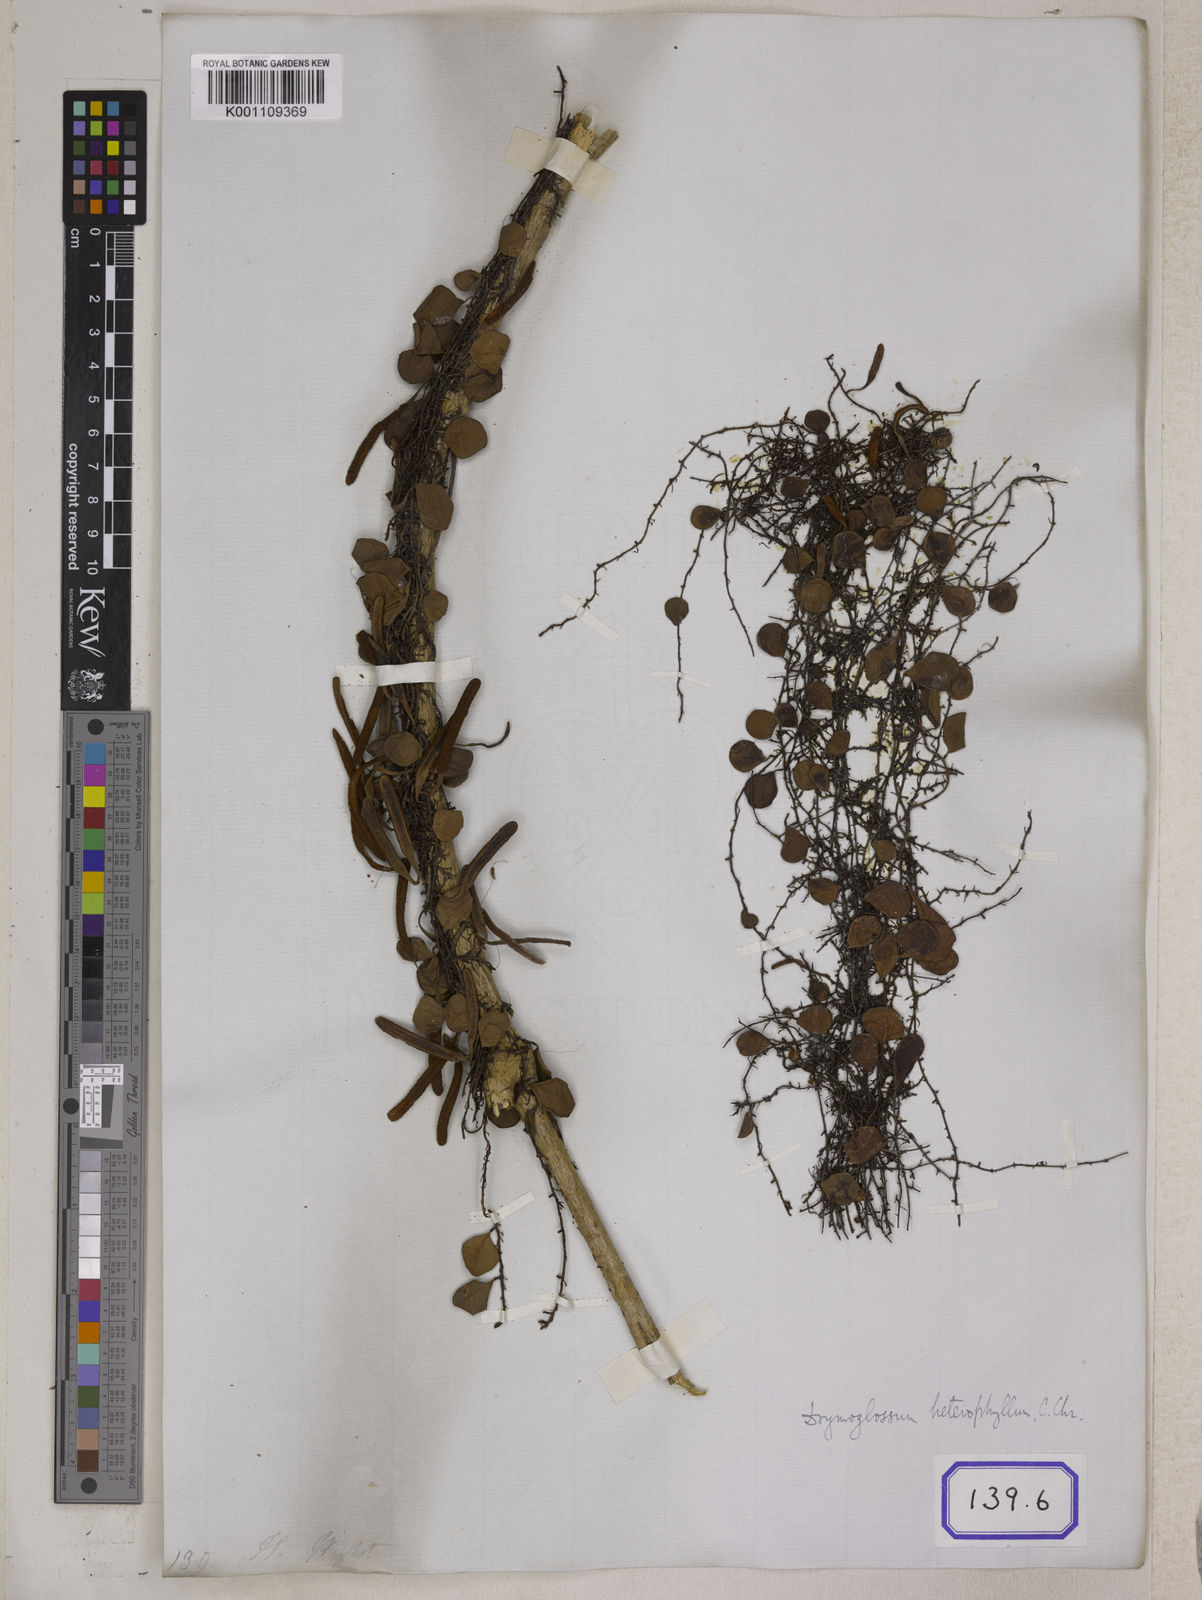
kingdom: Plantae
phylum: Tracheophyta
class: Polypodiopsida
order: Polypodiales
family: Polypodiaceae
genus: Pyrrosia
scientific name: Pyrrosia piloselloides
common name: Epiphytic creeping fern
